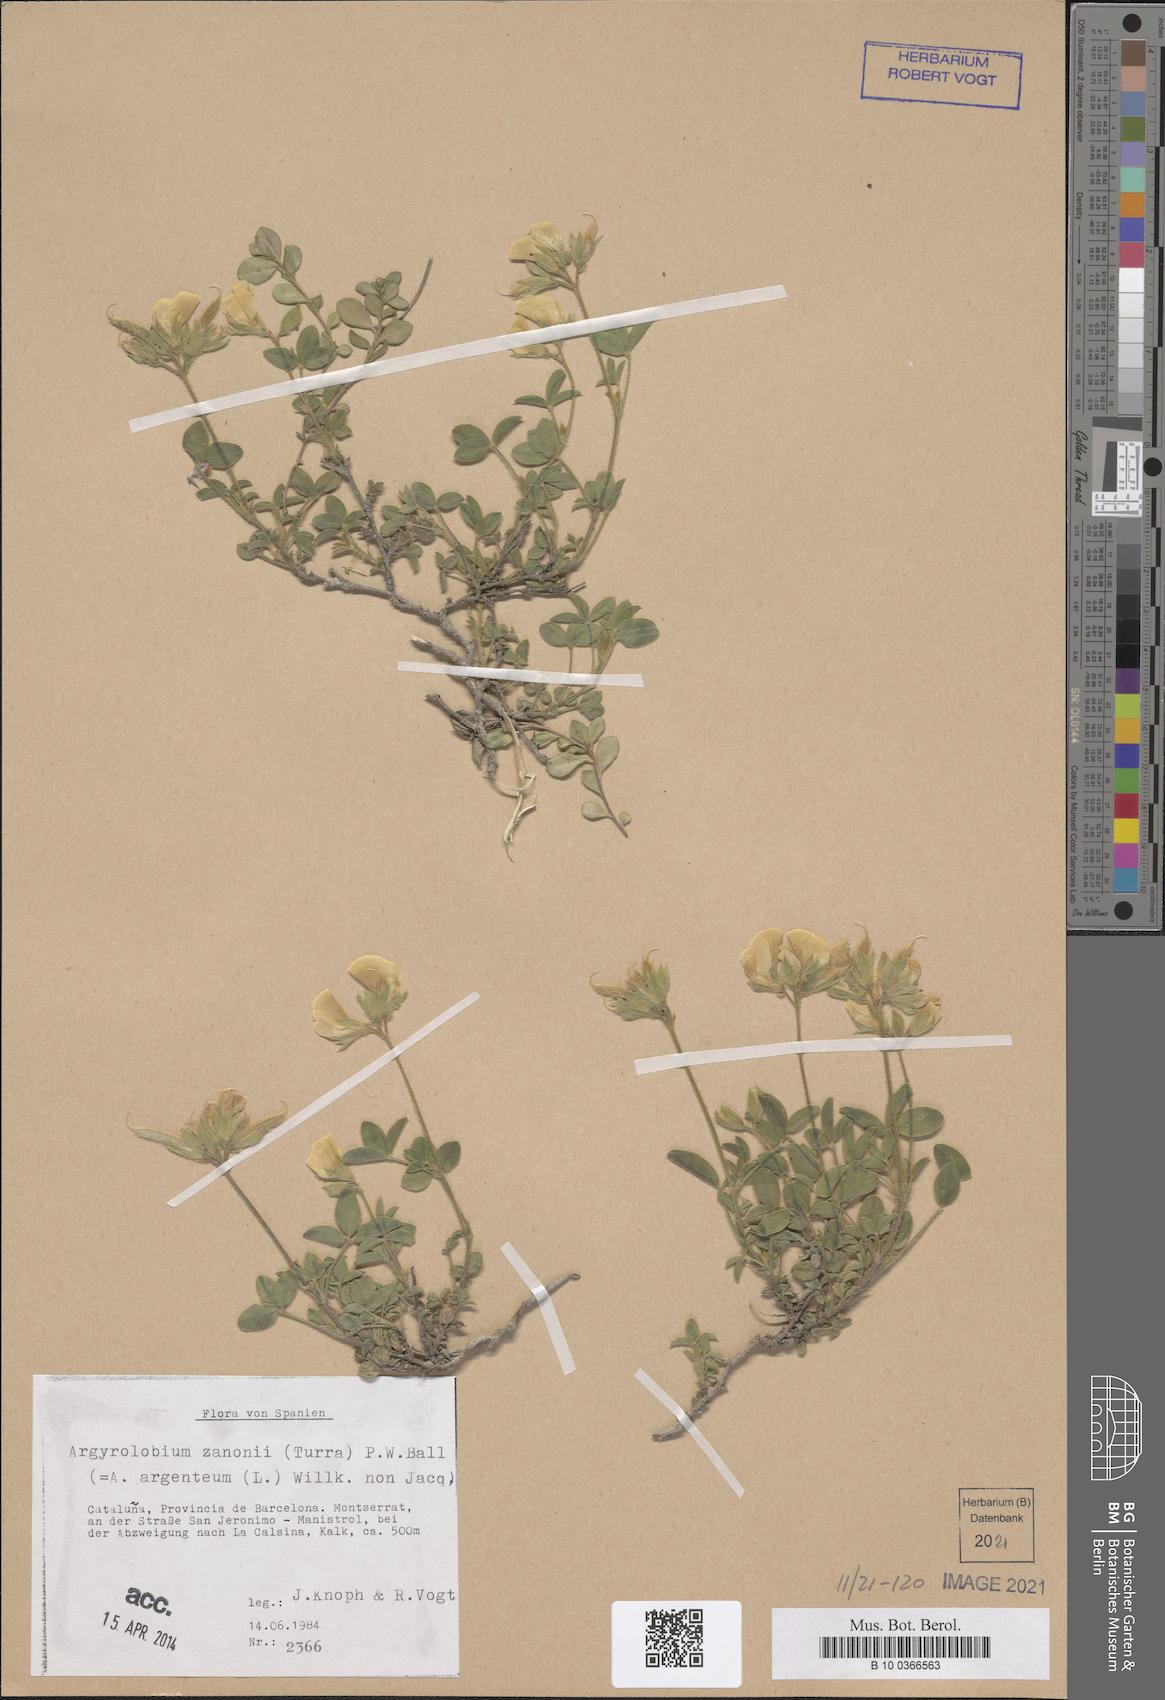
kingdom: Plantae
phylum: Tracheophyta
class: Magnoliopsida
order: Fabales
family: Fabaceae
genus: Argyrolobium
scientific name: Argyrolobium zanonii
